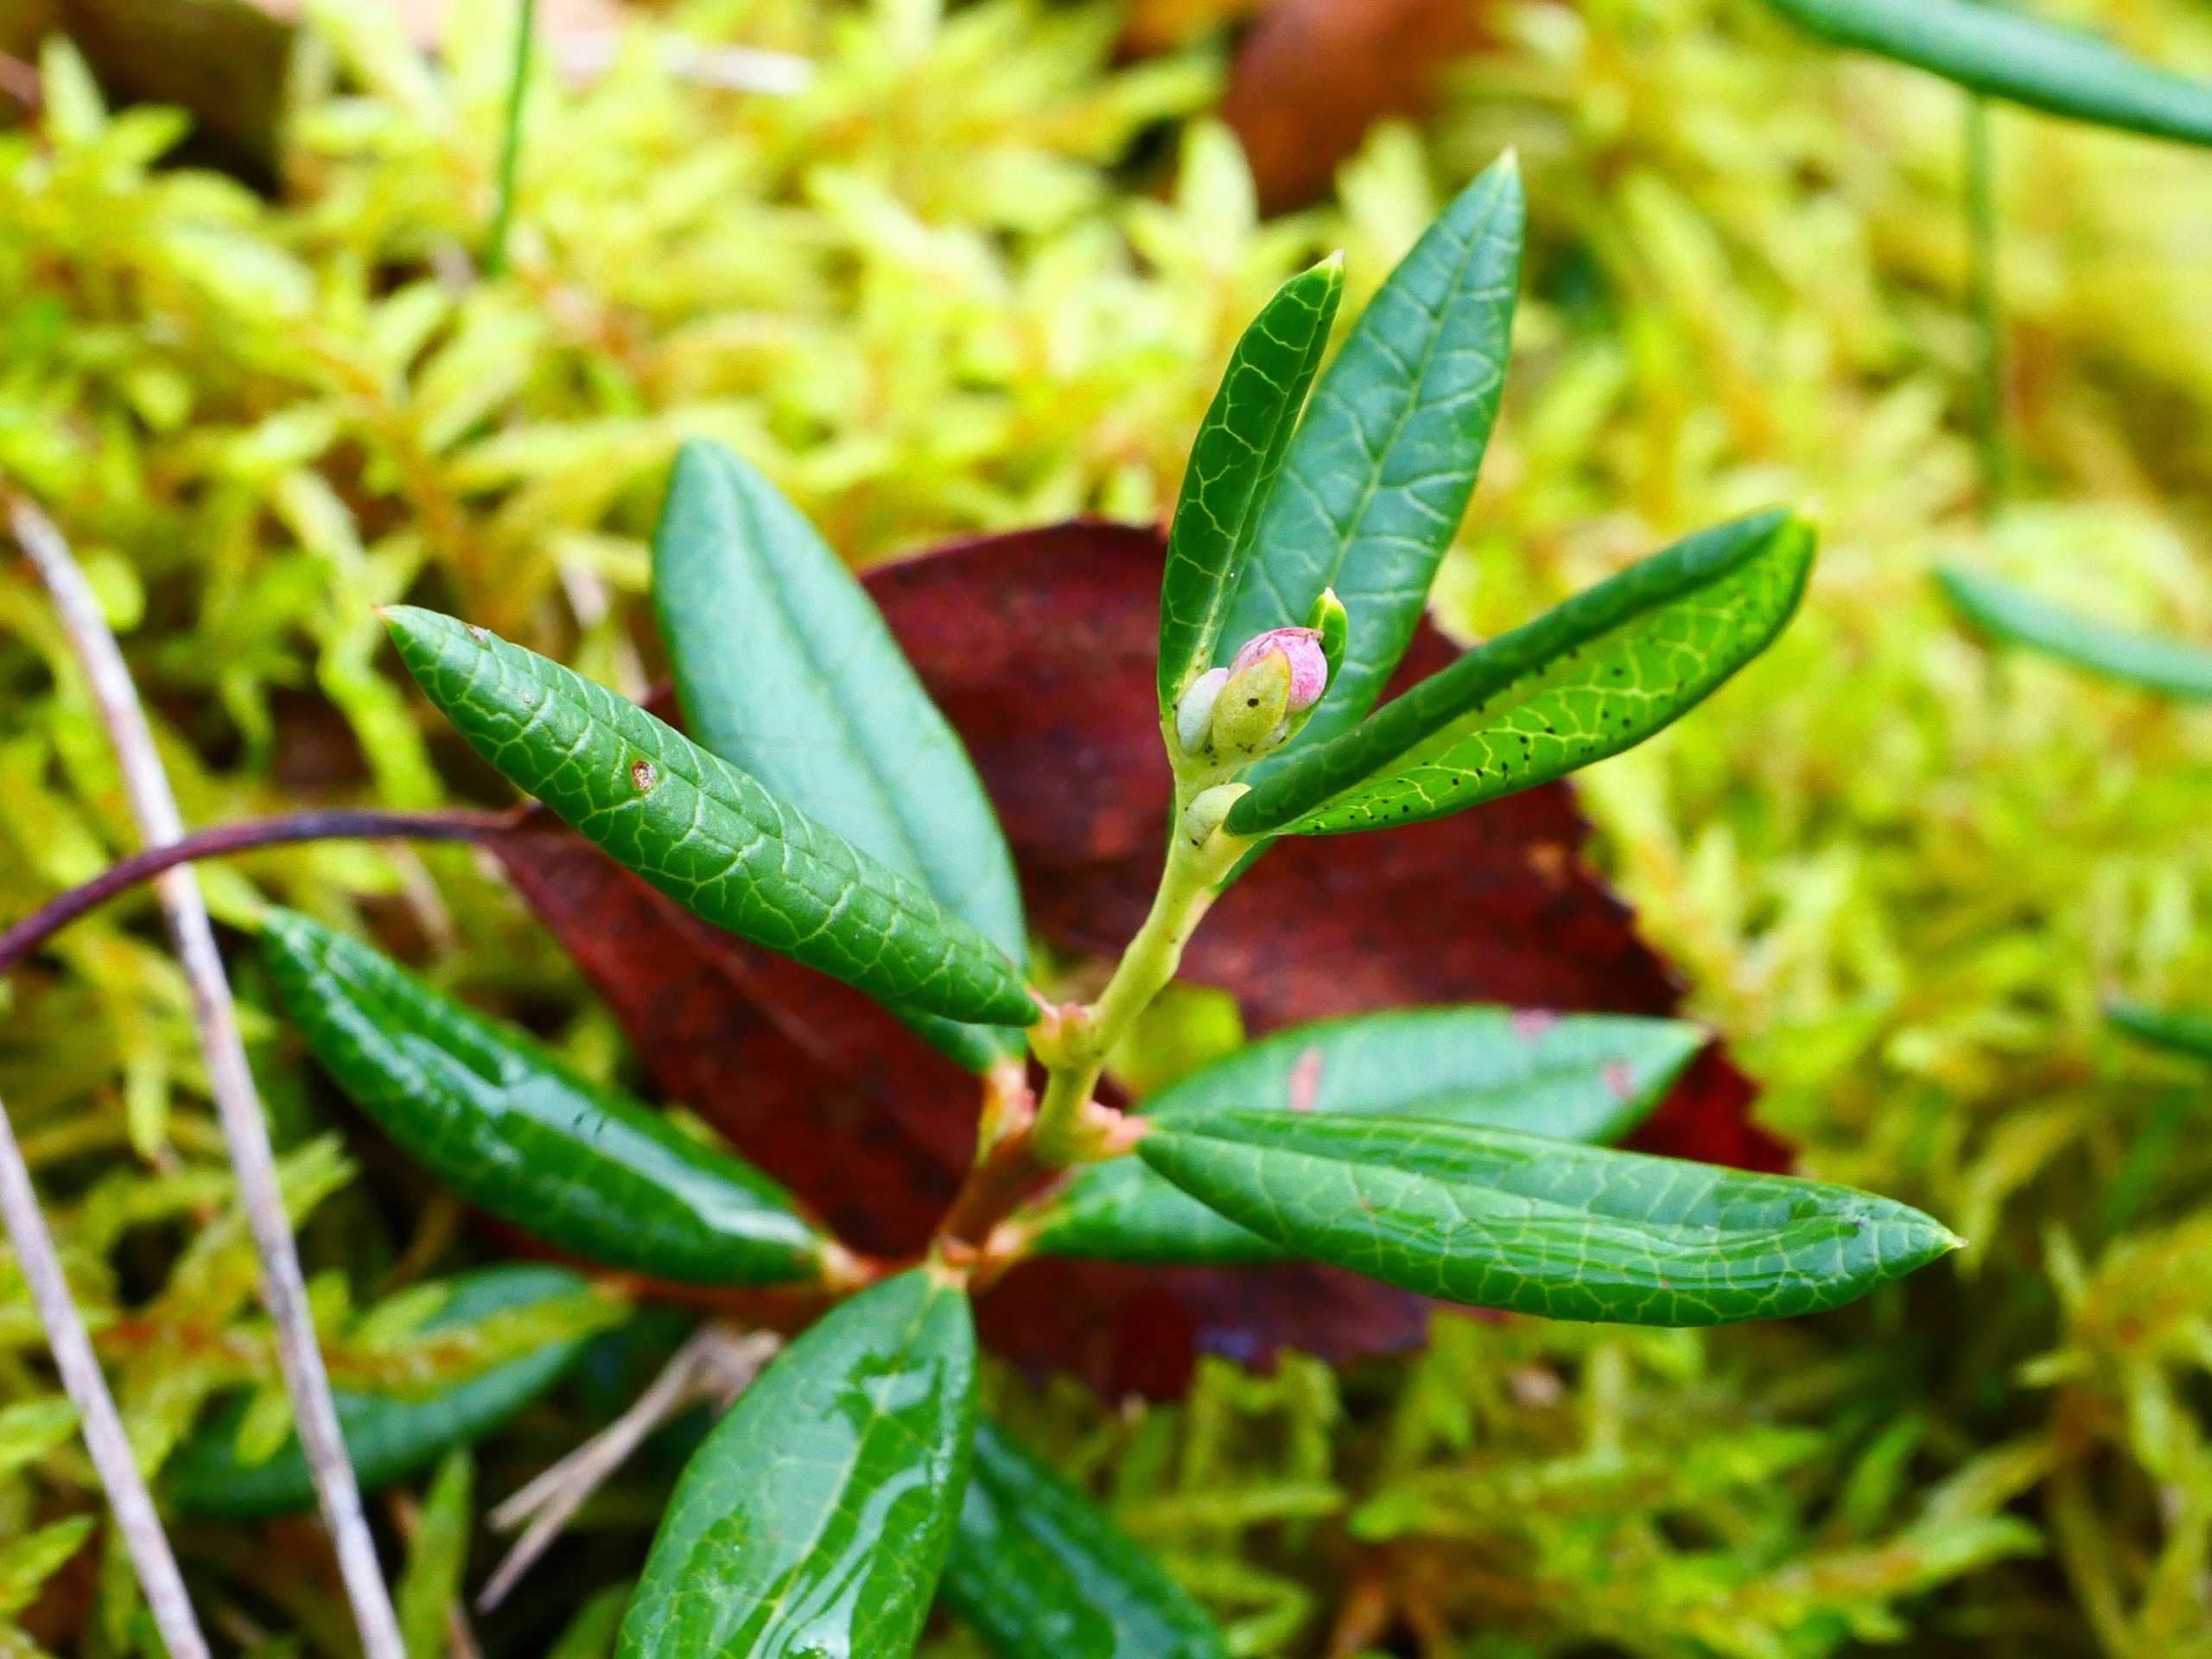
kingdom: Plantae
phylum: Tracheophyta
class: Magnoliopsida
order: Ericales
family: Ericaceae
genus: Andromeda
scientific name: Andromeda polifolia
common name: Rosmarinlyng
